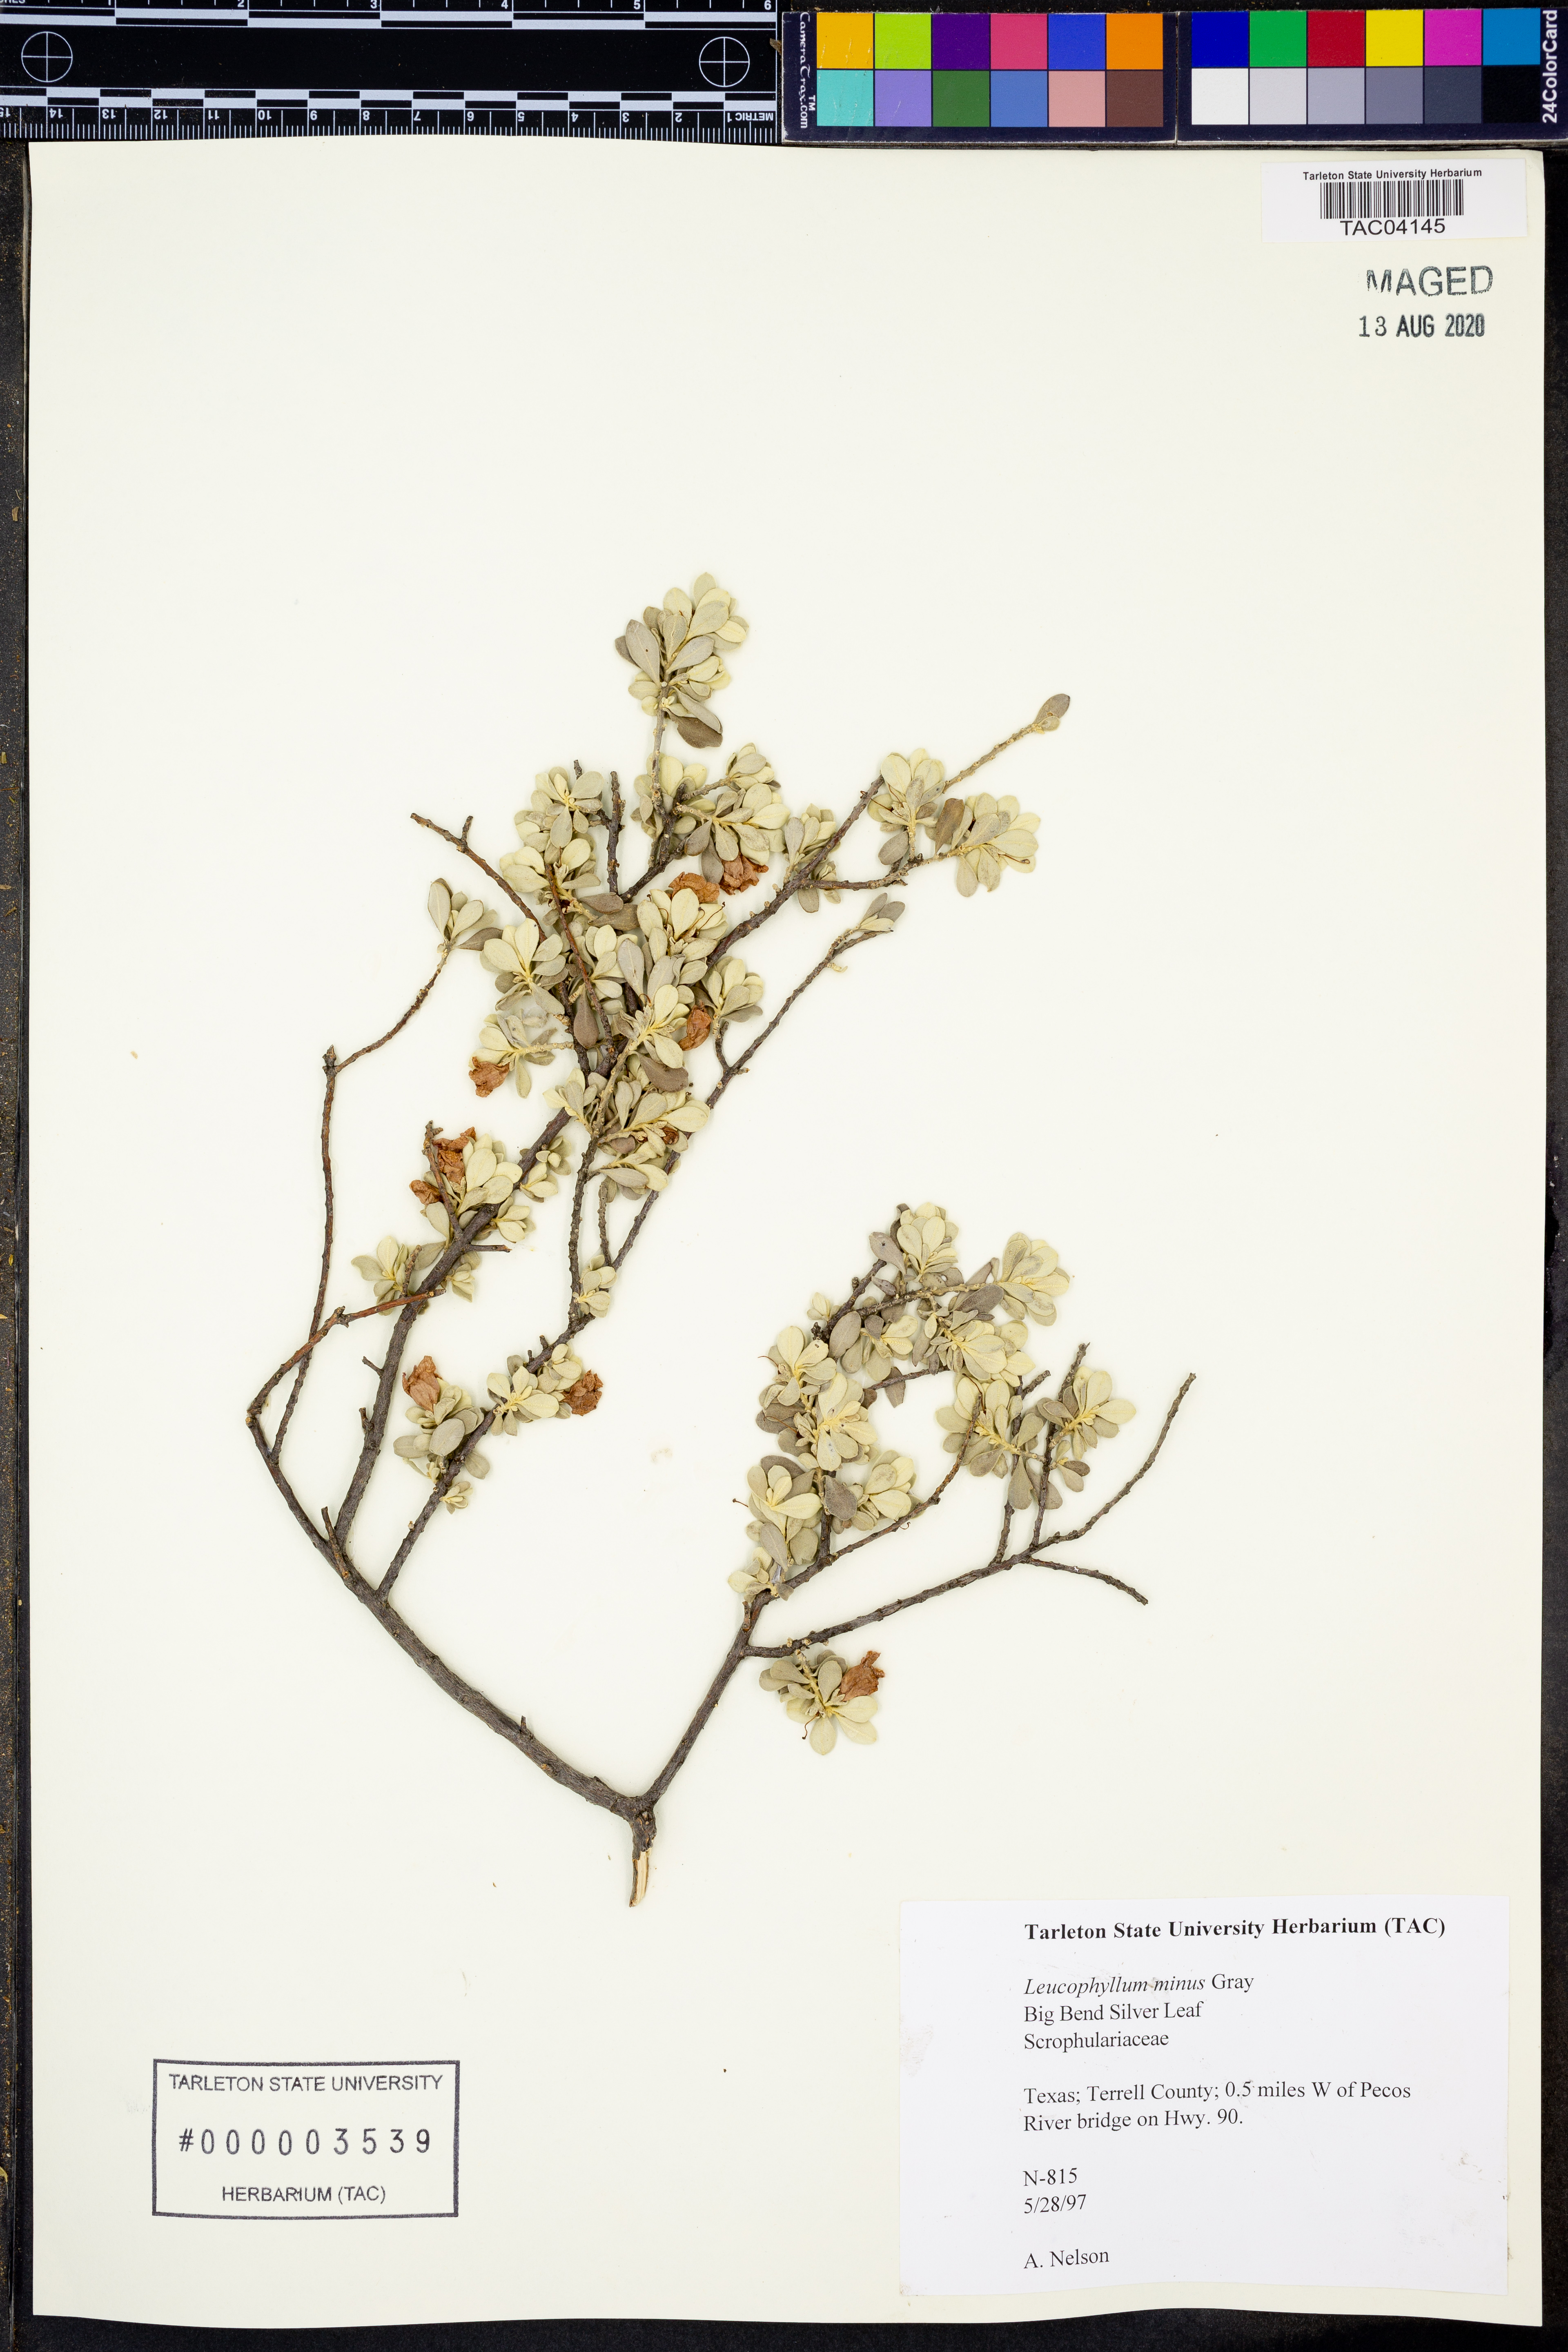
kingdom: Plantae
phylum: Tracheophyta
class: Magnoliopsida
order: Lamiales
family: Scrophulariaceae
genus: Leucophyllum
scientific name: Leucophyllum minus
